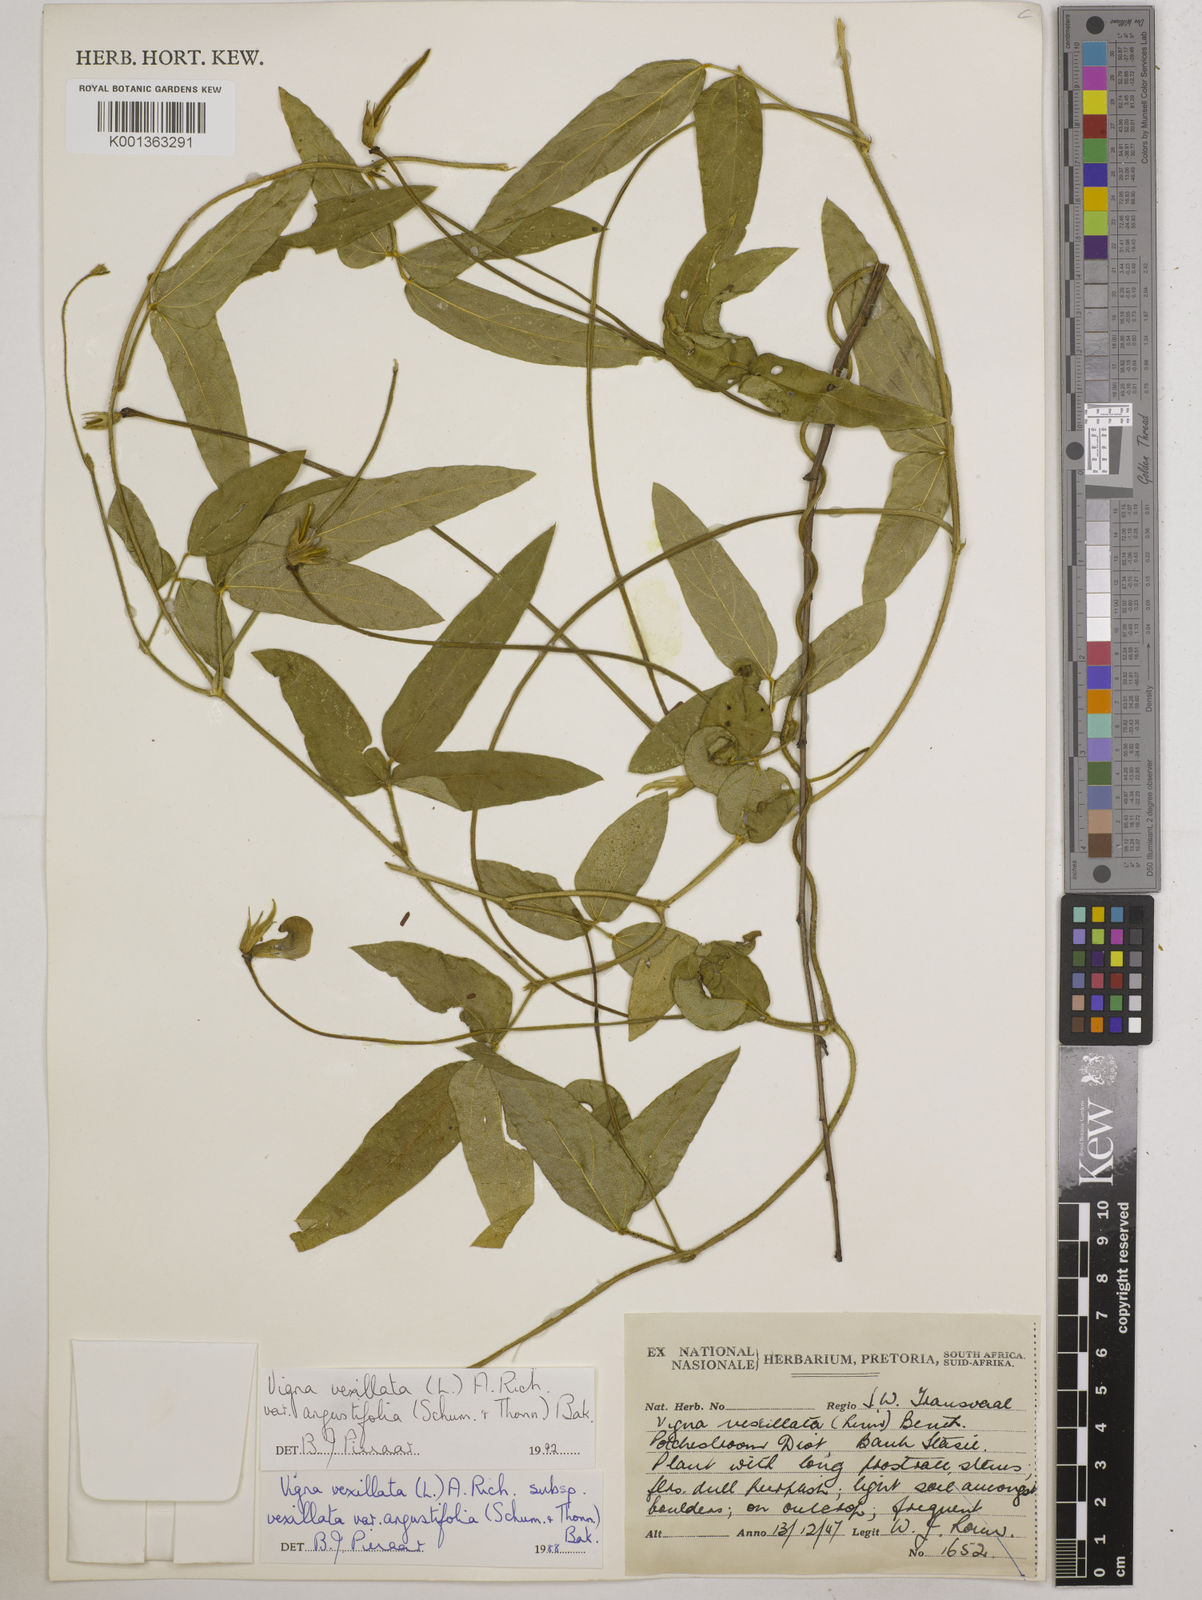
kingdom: Plantae
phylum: Tracheophyta
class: Magnoliopsida
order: Fabales
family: Fabaceae
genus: Vigna
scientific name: Vigna vexillata
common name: Zombi pea
